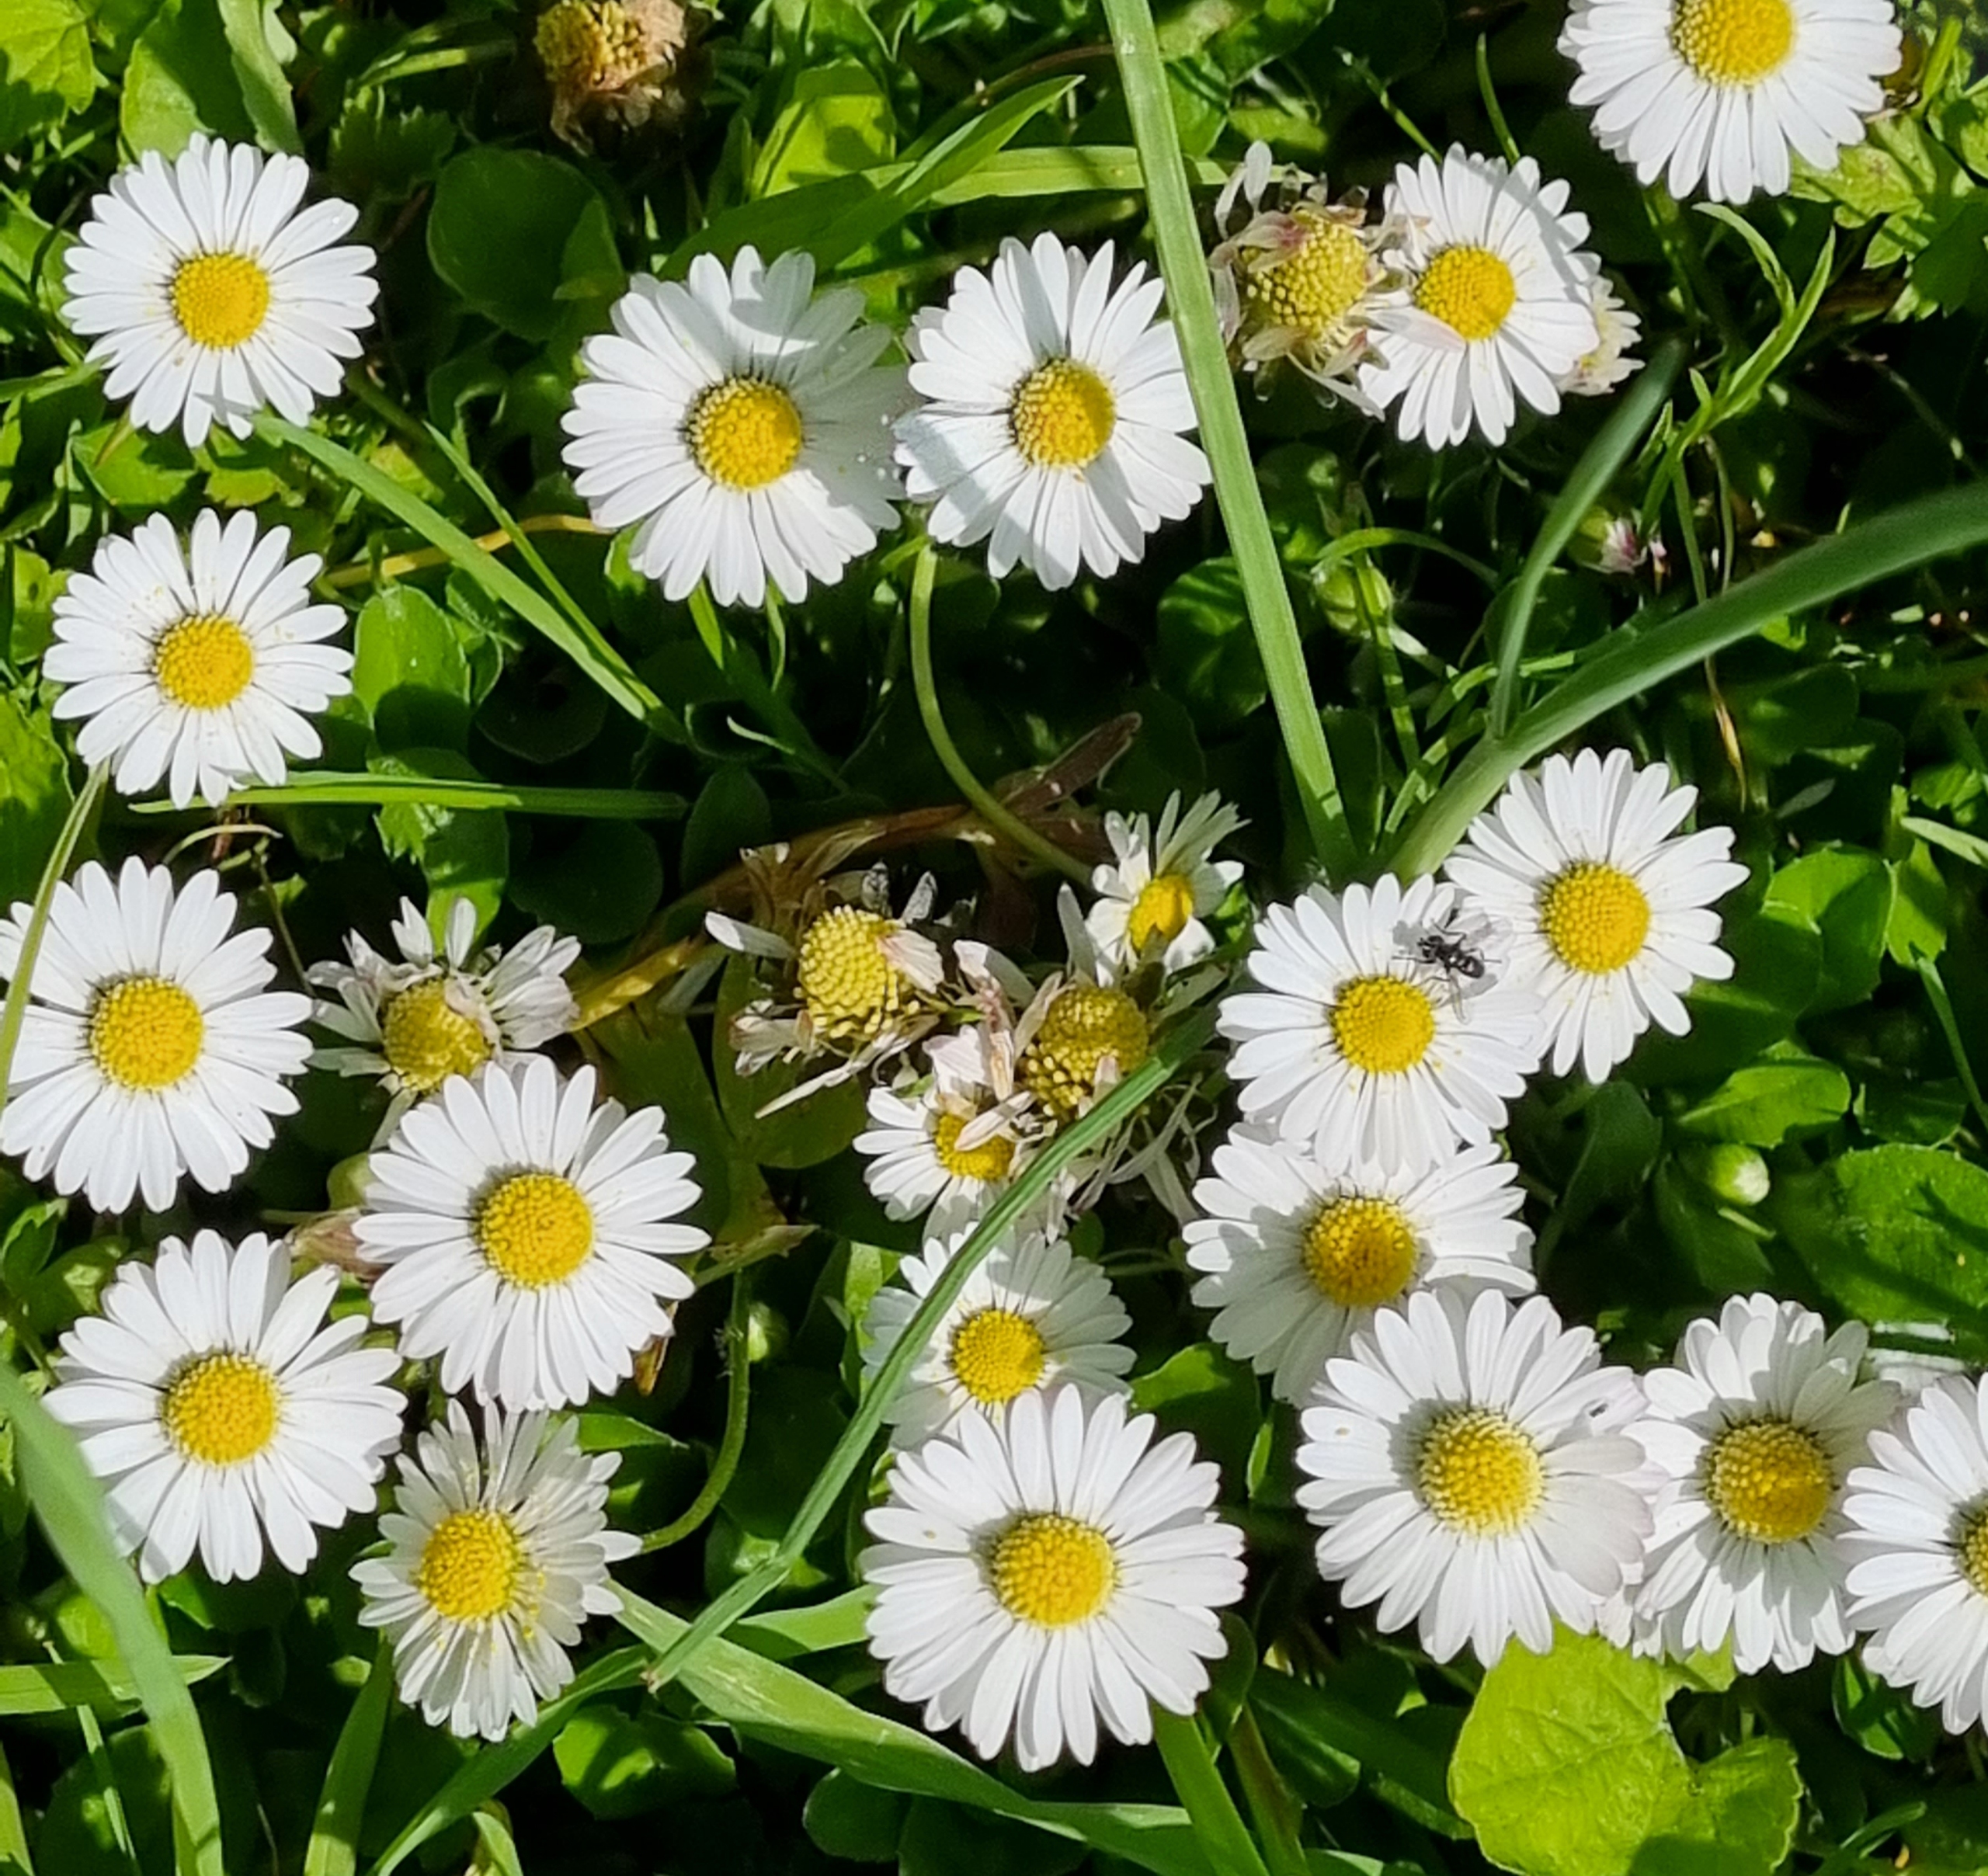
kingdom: Plantae
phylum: Tracheophyta
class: Magnoliopsida
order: Asterales
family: Asteraceae
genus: Bellis
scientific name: Bellis perennis
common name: Tusindfryd
